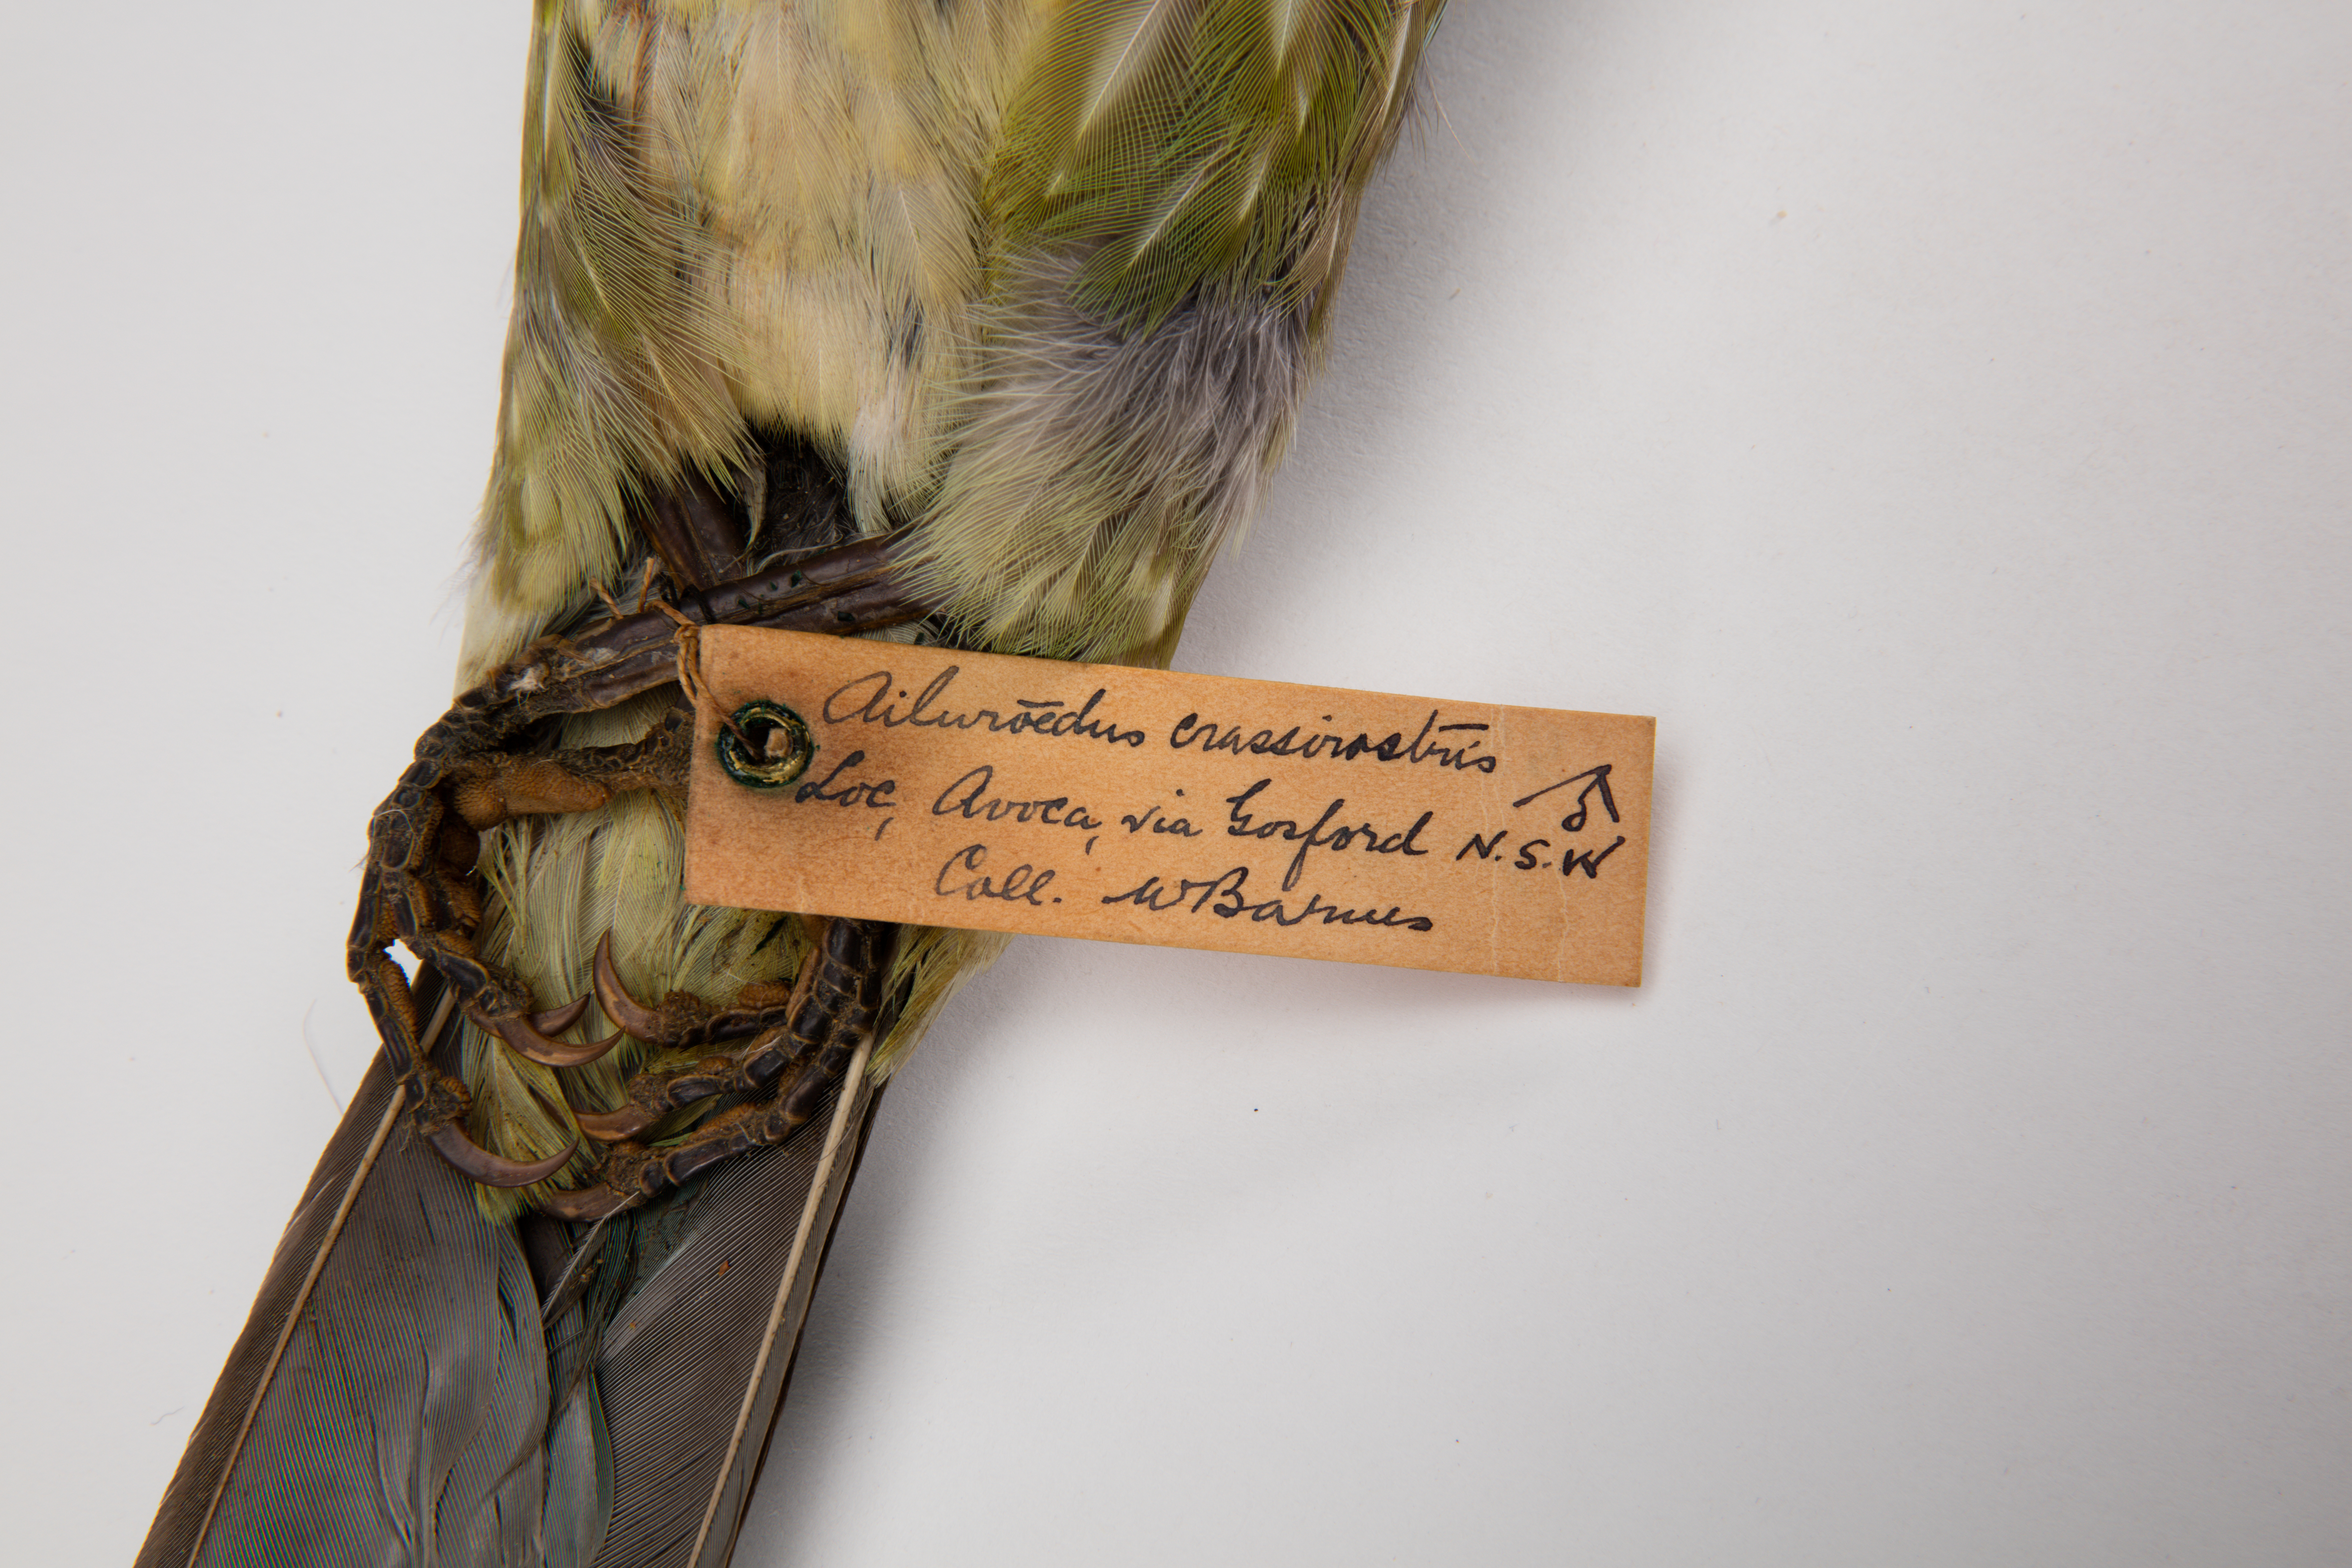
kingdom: Animalia
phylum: Chordata
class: Aves
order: Passeriformes
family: Ptilonorhynchidae
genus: Ailuroedus
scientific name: Ailuroedus crassirostris
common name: Green catbird
